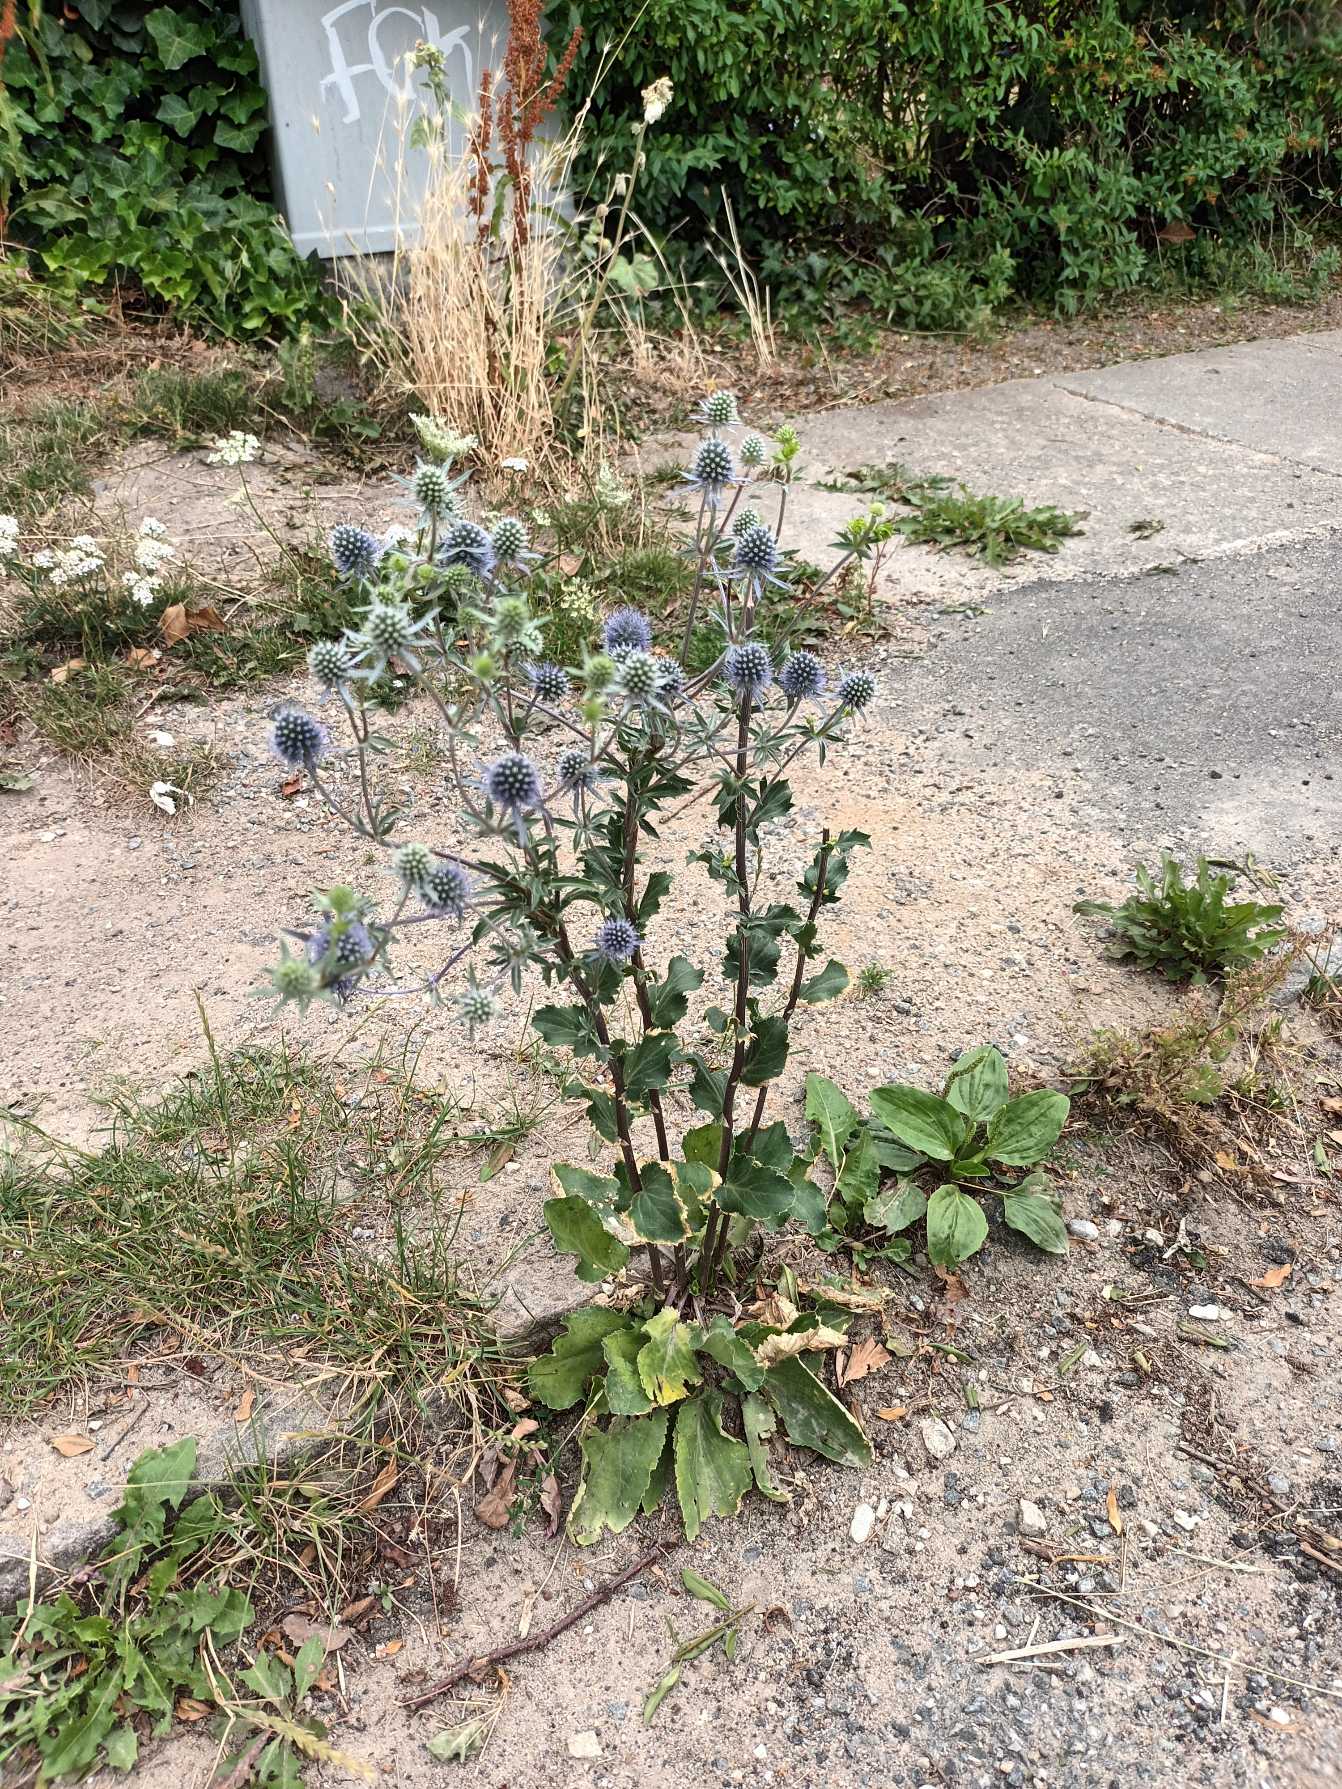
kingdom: Plantae
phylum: Tracheophyta
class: Magnoliopsida
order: Apiales
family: Apiaceae
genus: Eryngium
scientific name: Eryngium planum
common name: Russisk mandstro
